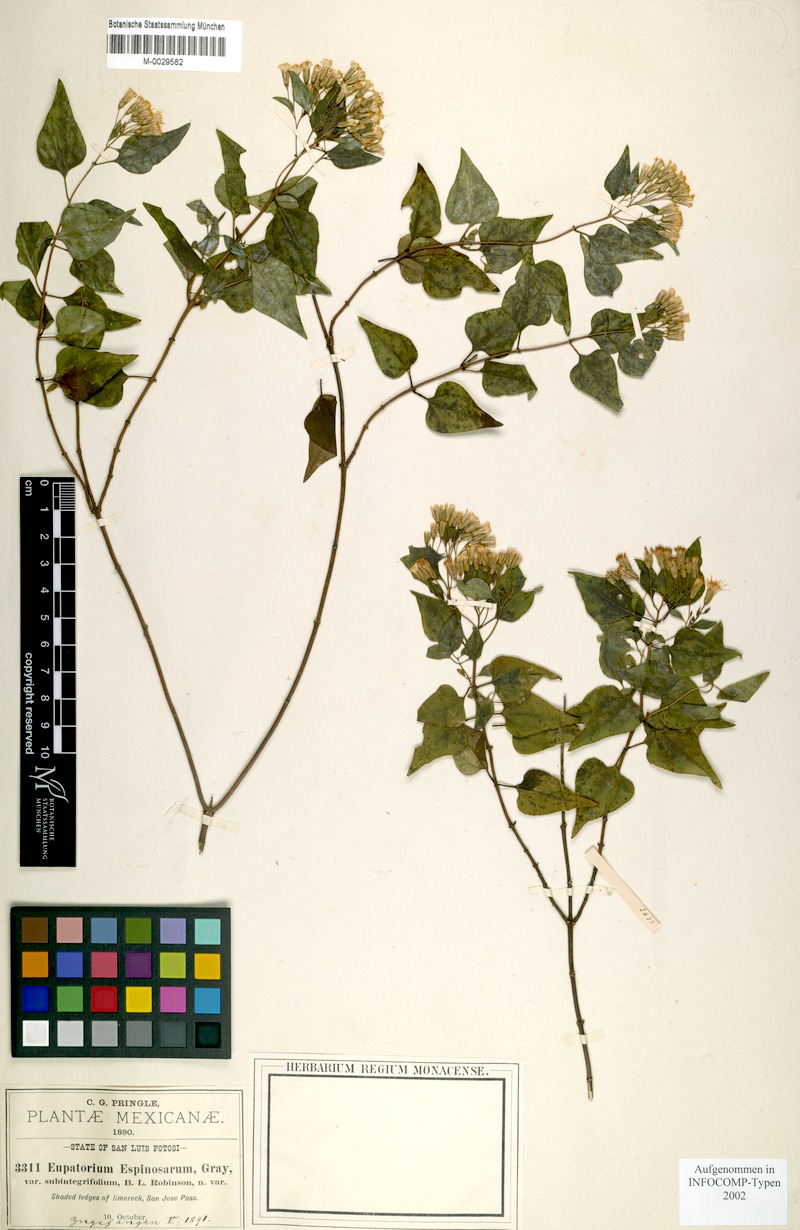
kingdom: Plantae
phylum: Tracheophyta
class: Magnoliopsida
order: Asterales
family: Asteraceae
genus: Ageratina
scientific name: Ageratina espinosarum
